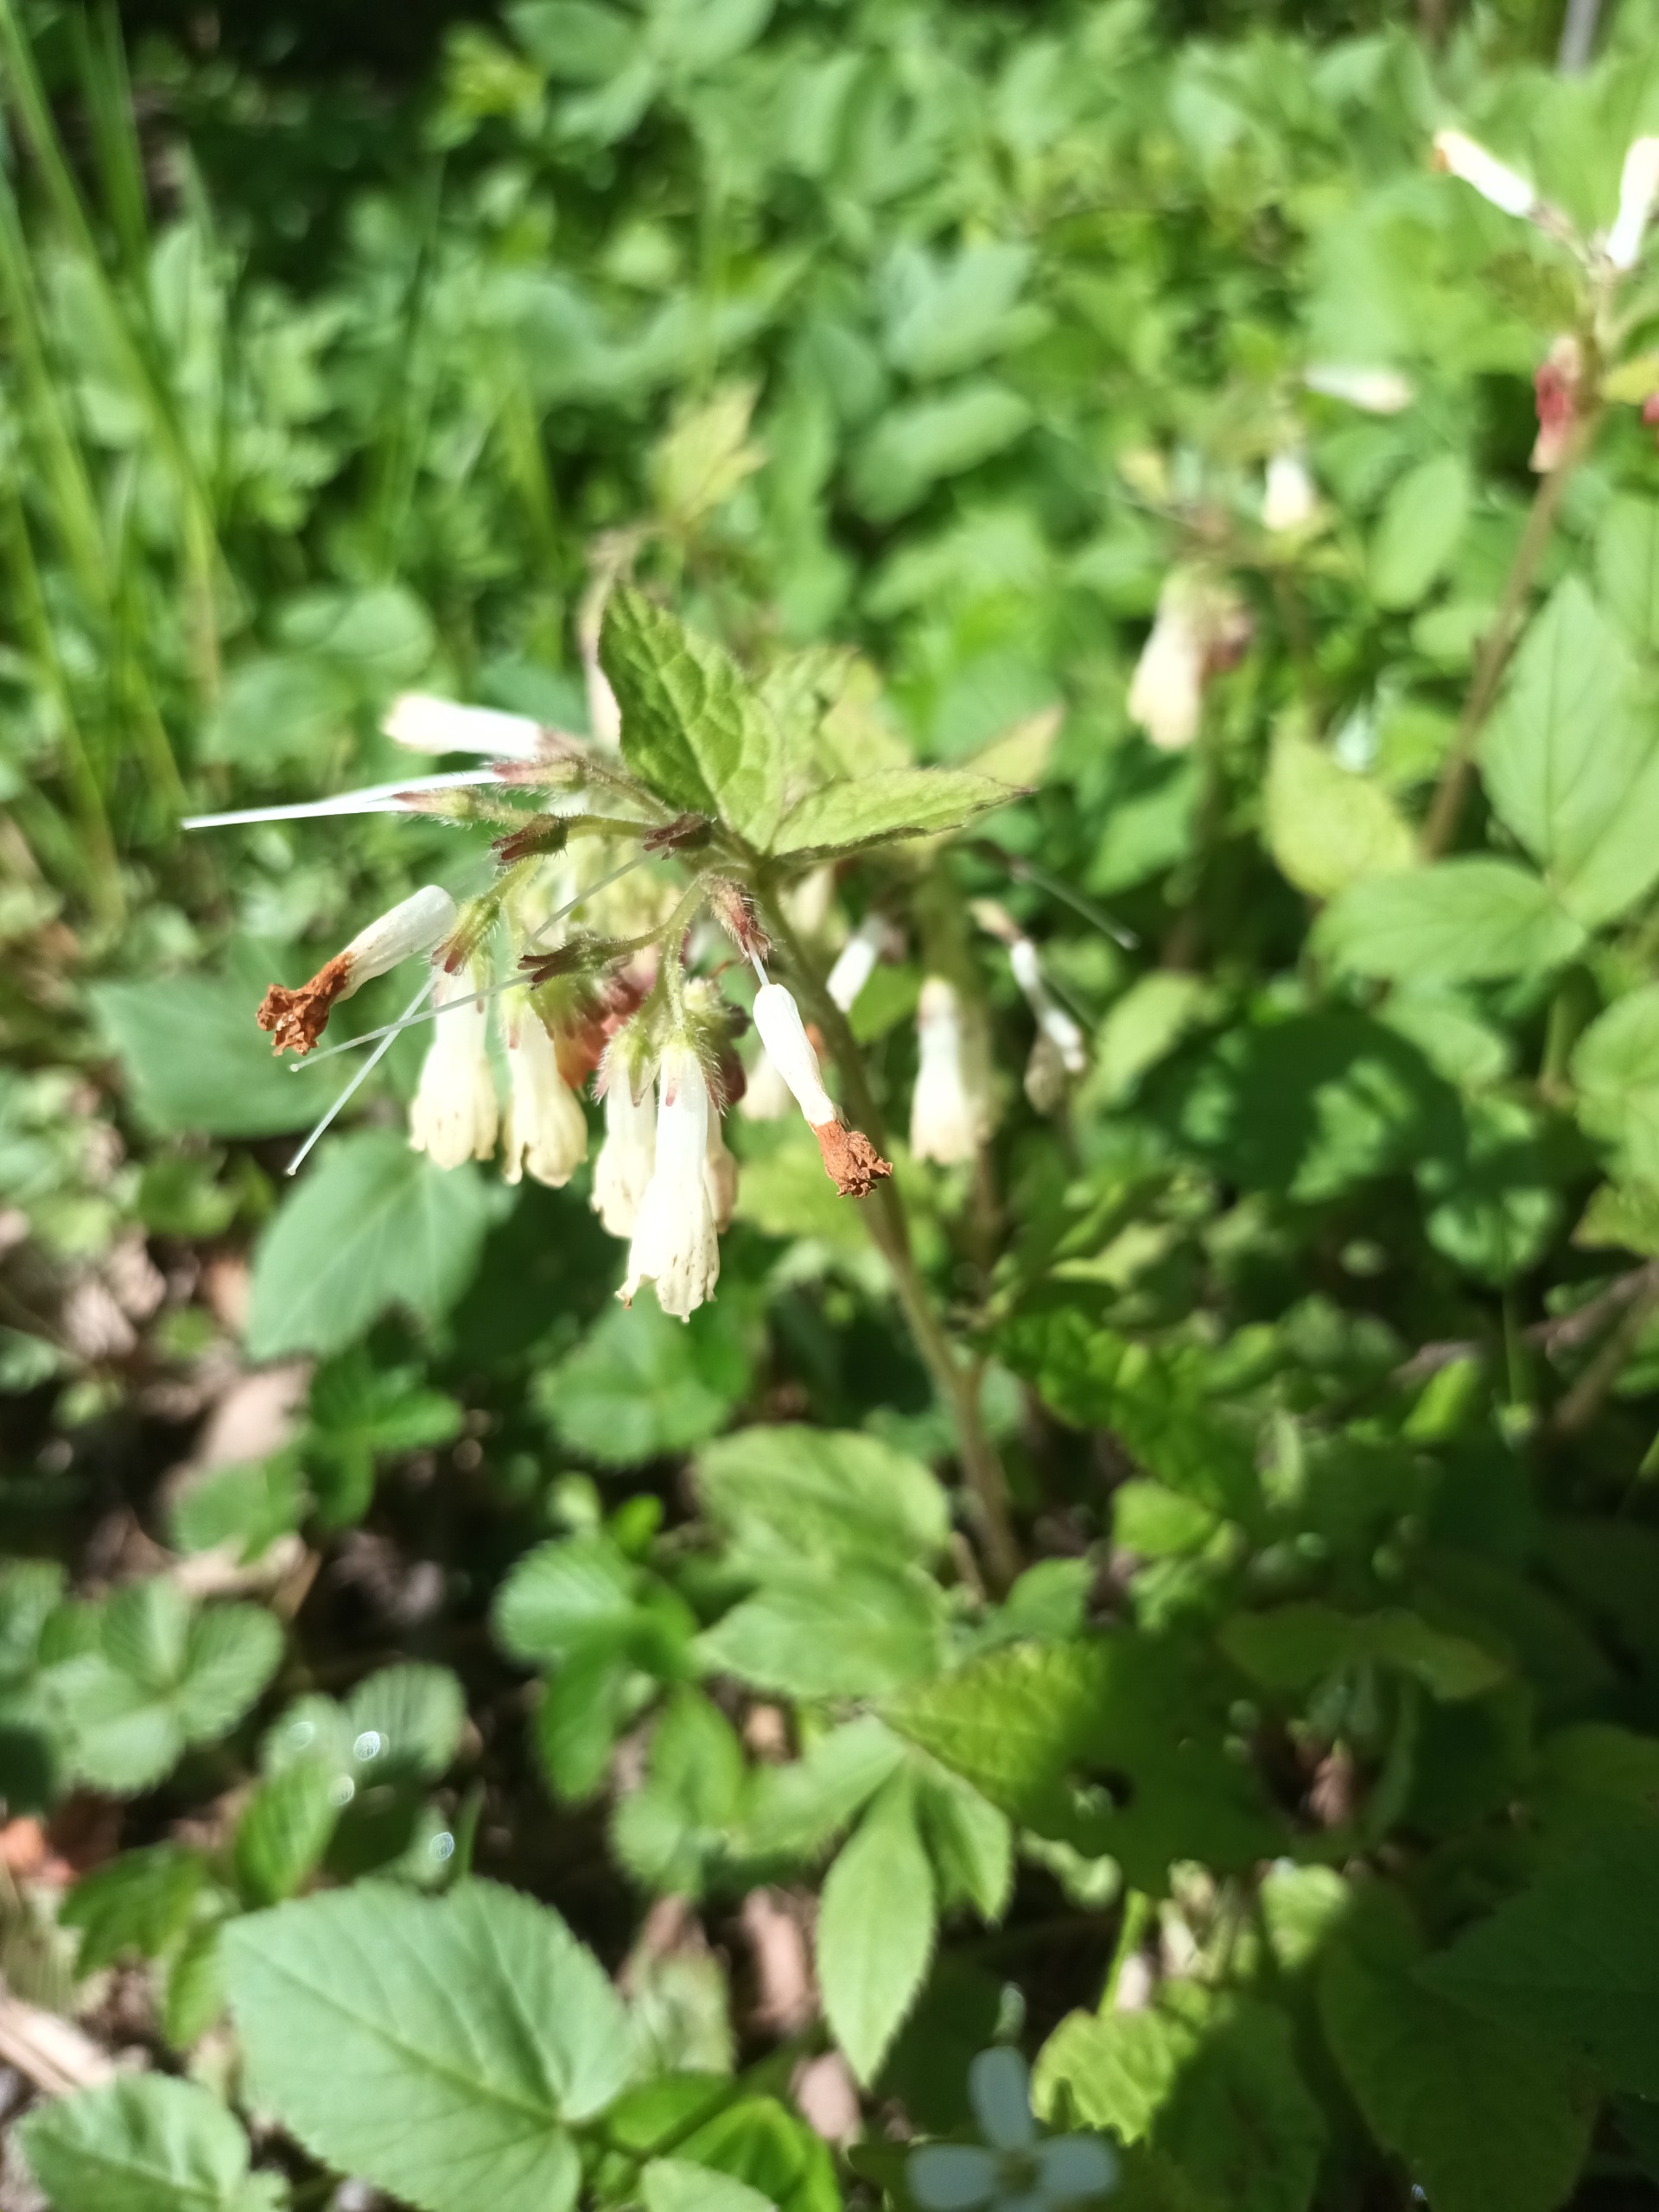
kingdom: Plantae
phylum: Tracheophyta
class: Magnoliopsida
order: Boraginales
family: Boraginaceae
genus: Symphytum
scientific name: Symphytum grandiflorum
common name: Storblomstret kulsukker
